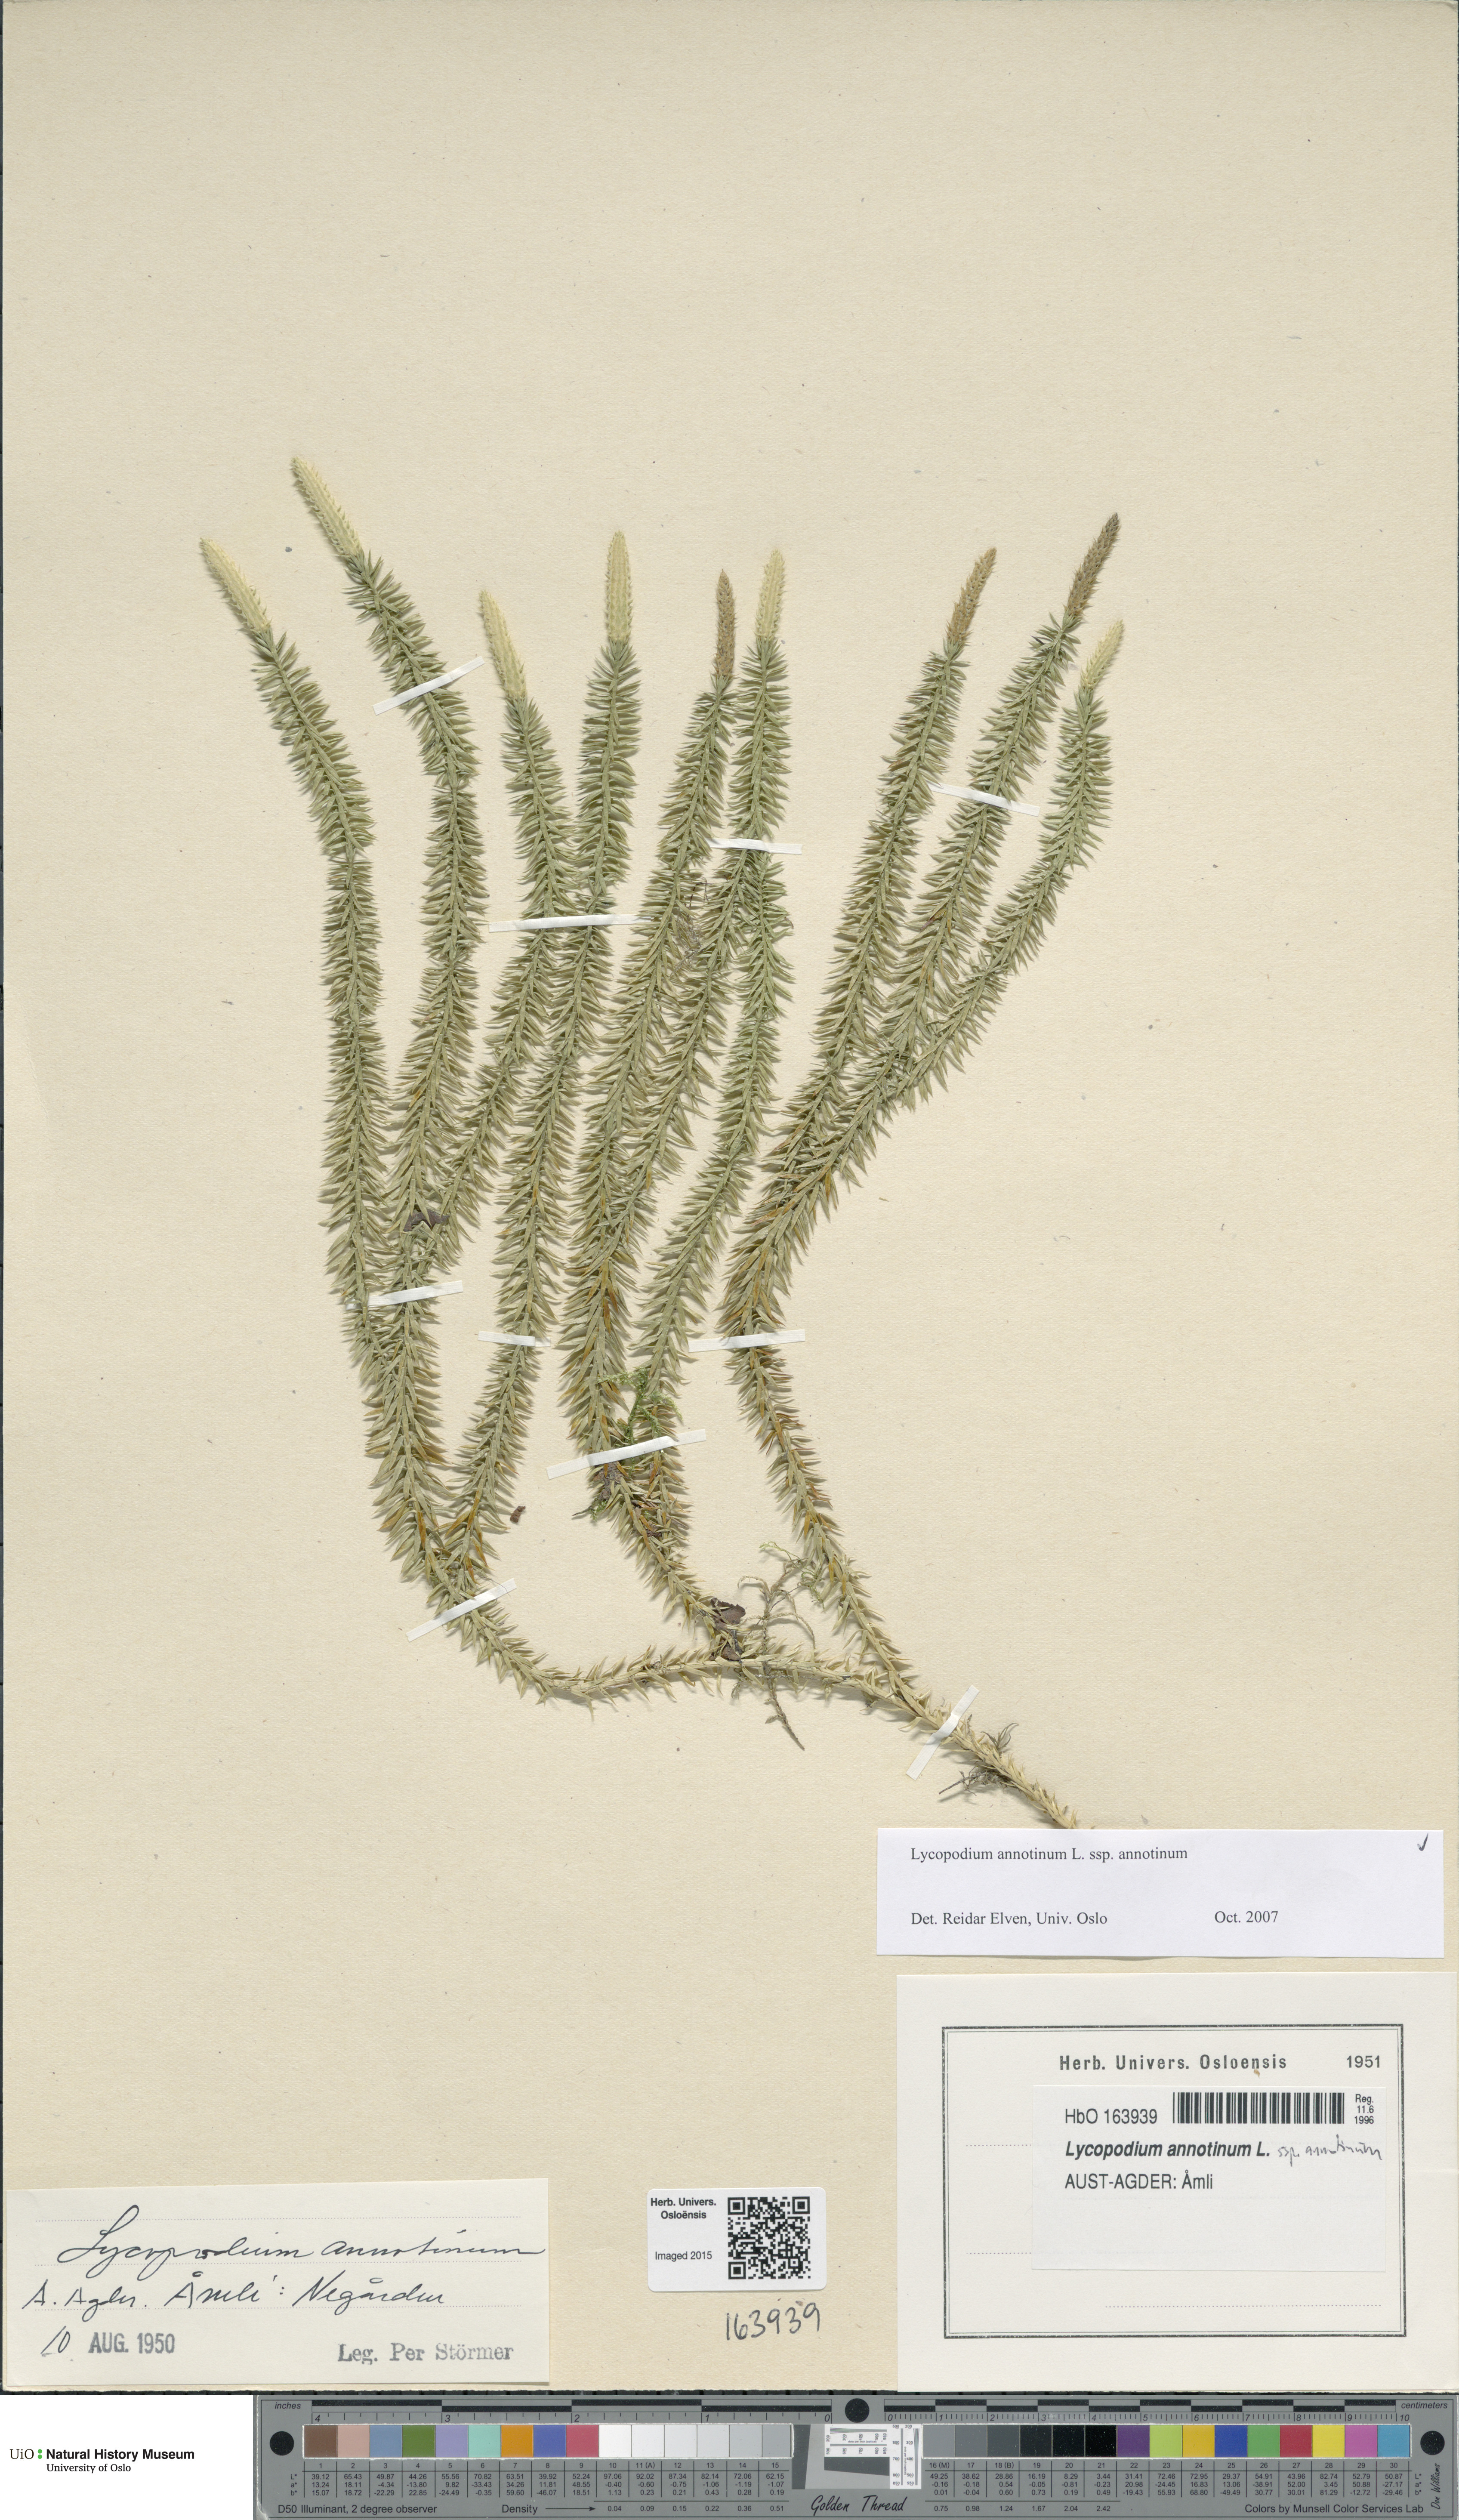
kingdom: Plantae
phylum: Tracheophyta
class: Lycopodiopsida
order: Lycopodiales
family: Lycopodiaceae
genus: Spinulum
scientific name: Spinulum annotinum
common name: Interrupted club-moss
